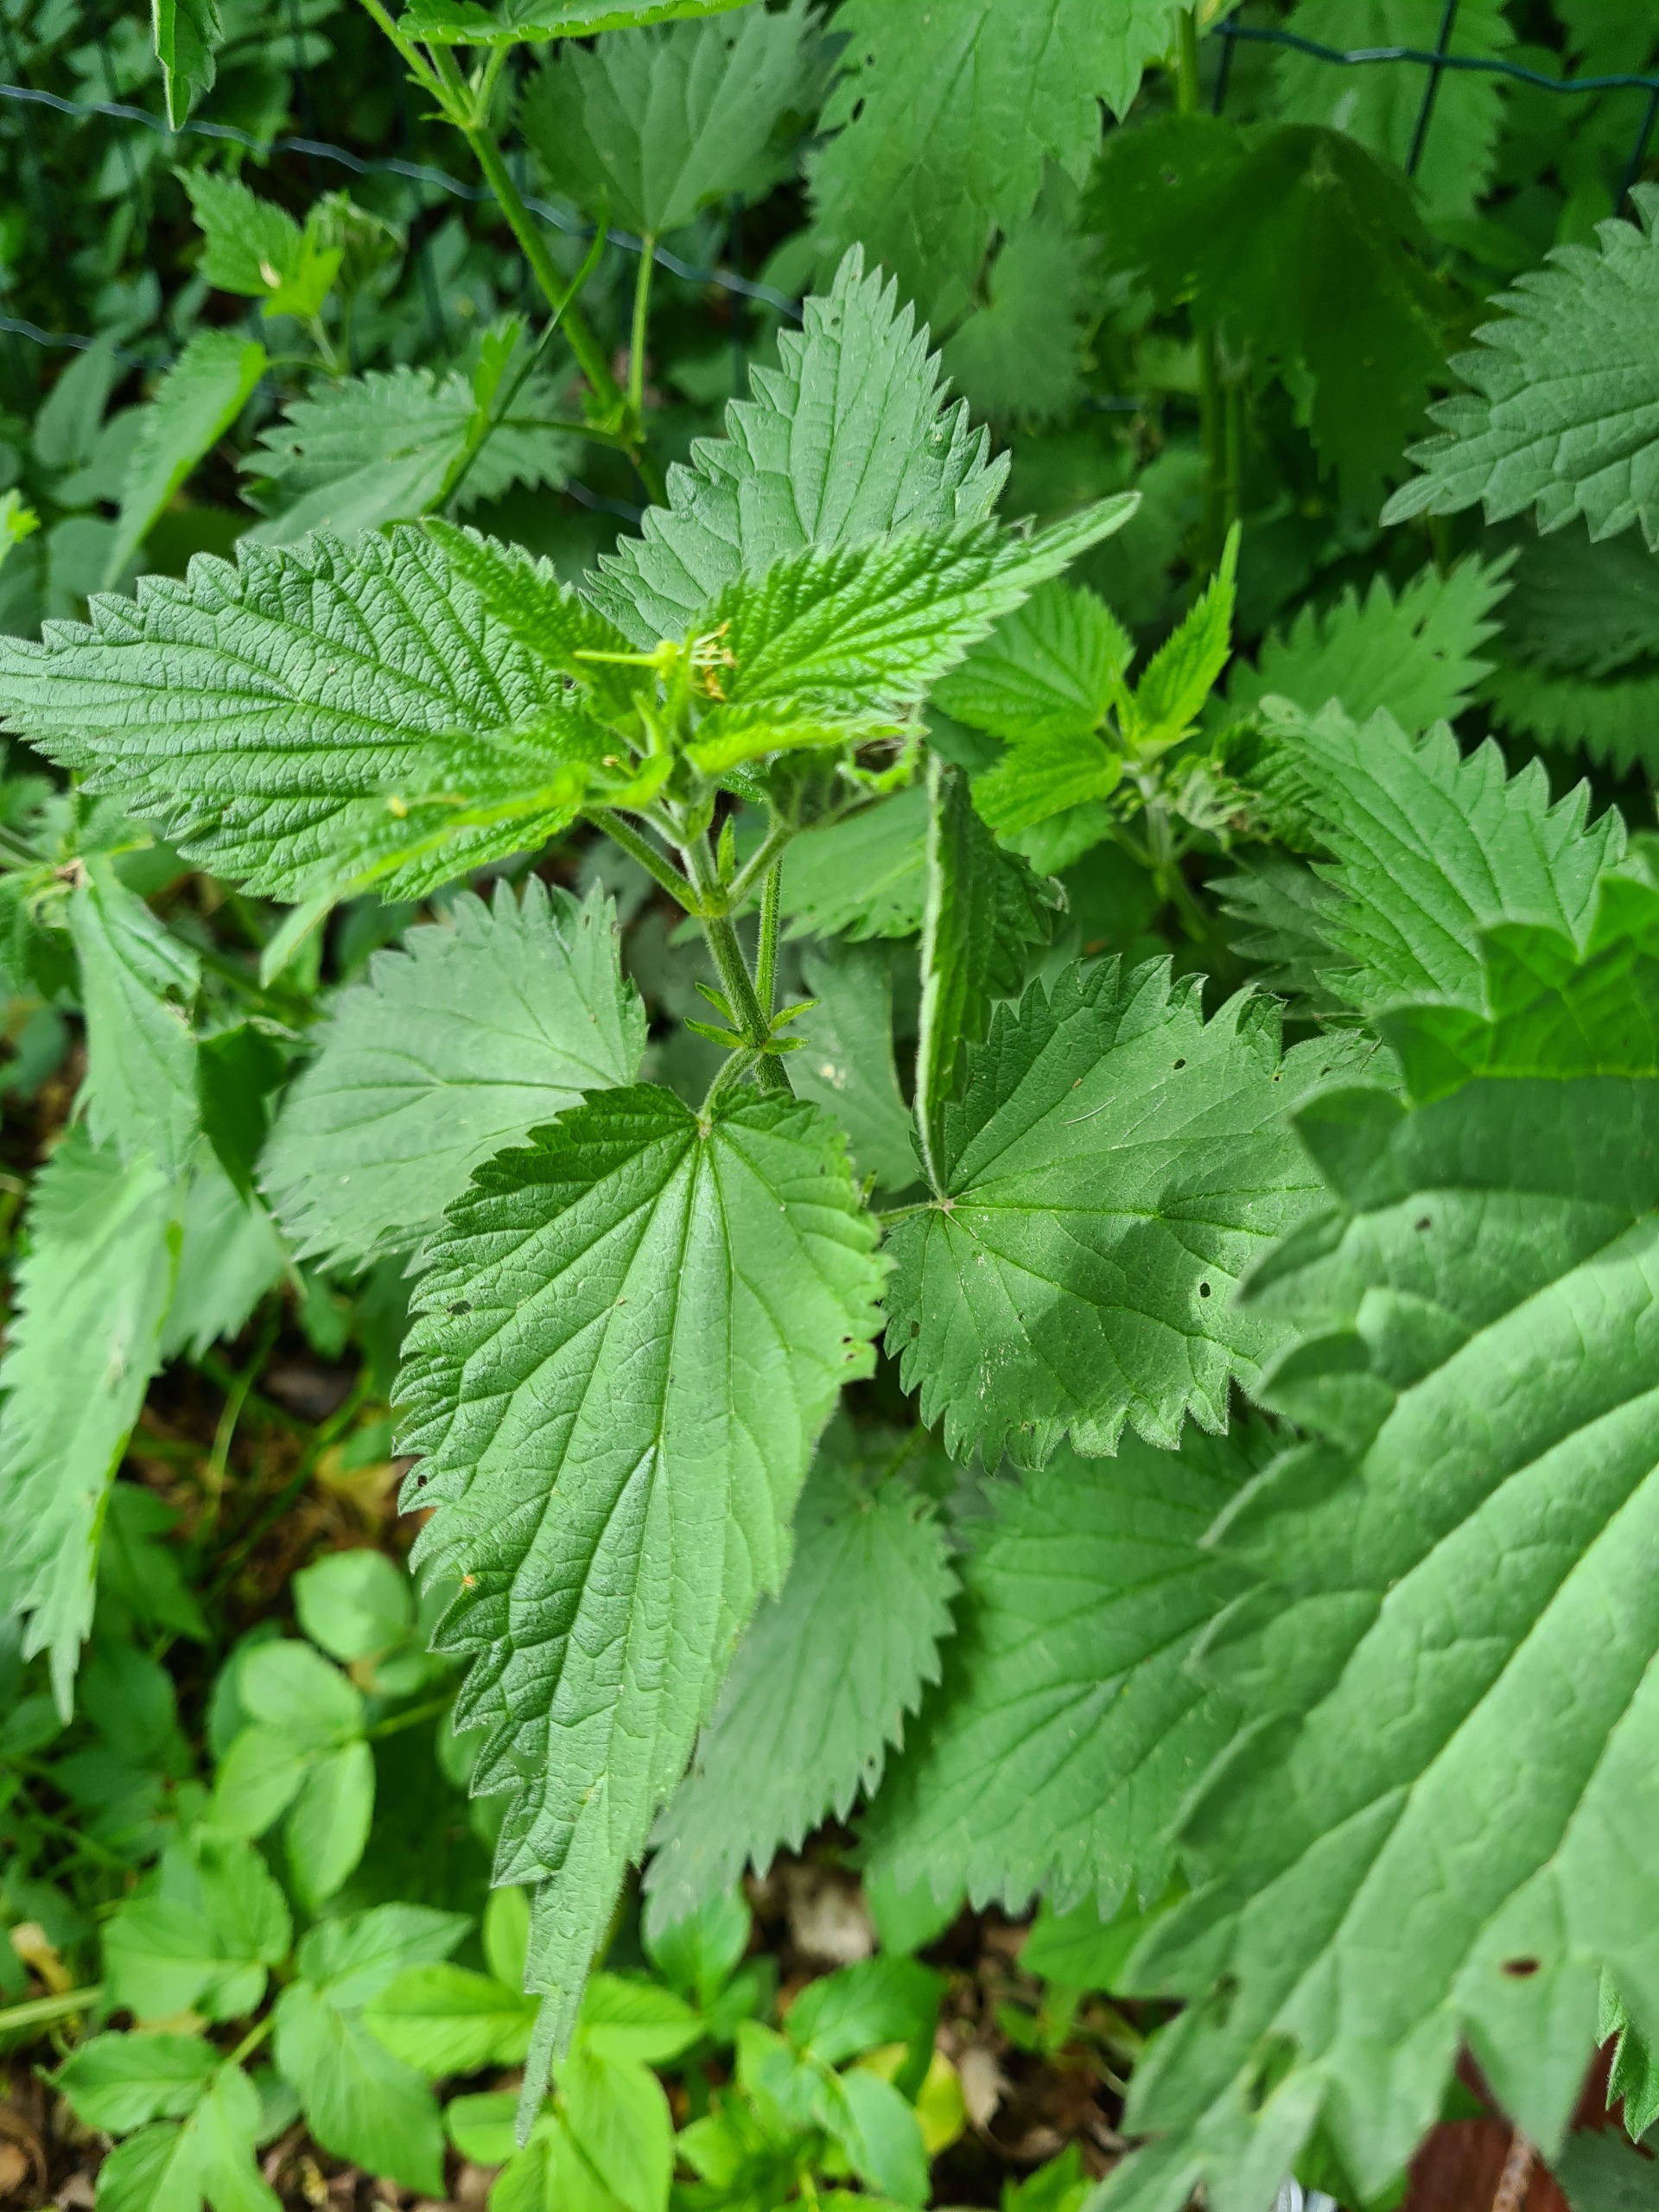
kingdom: Plantae
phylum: Tracheophyta
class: Magnoliopsida
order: Rosales
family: Urticaceae
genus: Urtica
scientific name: Urtica dioica
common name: Stor nælde
